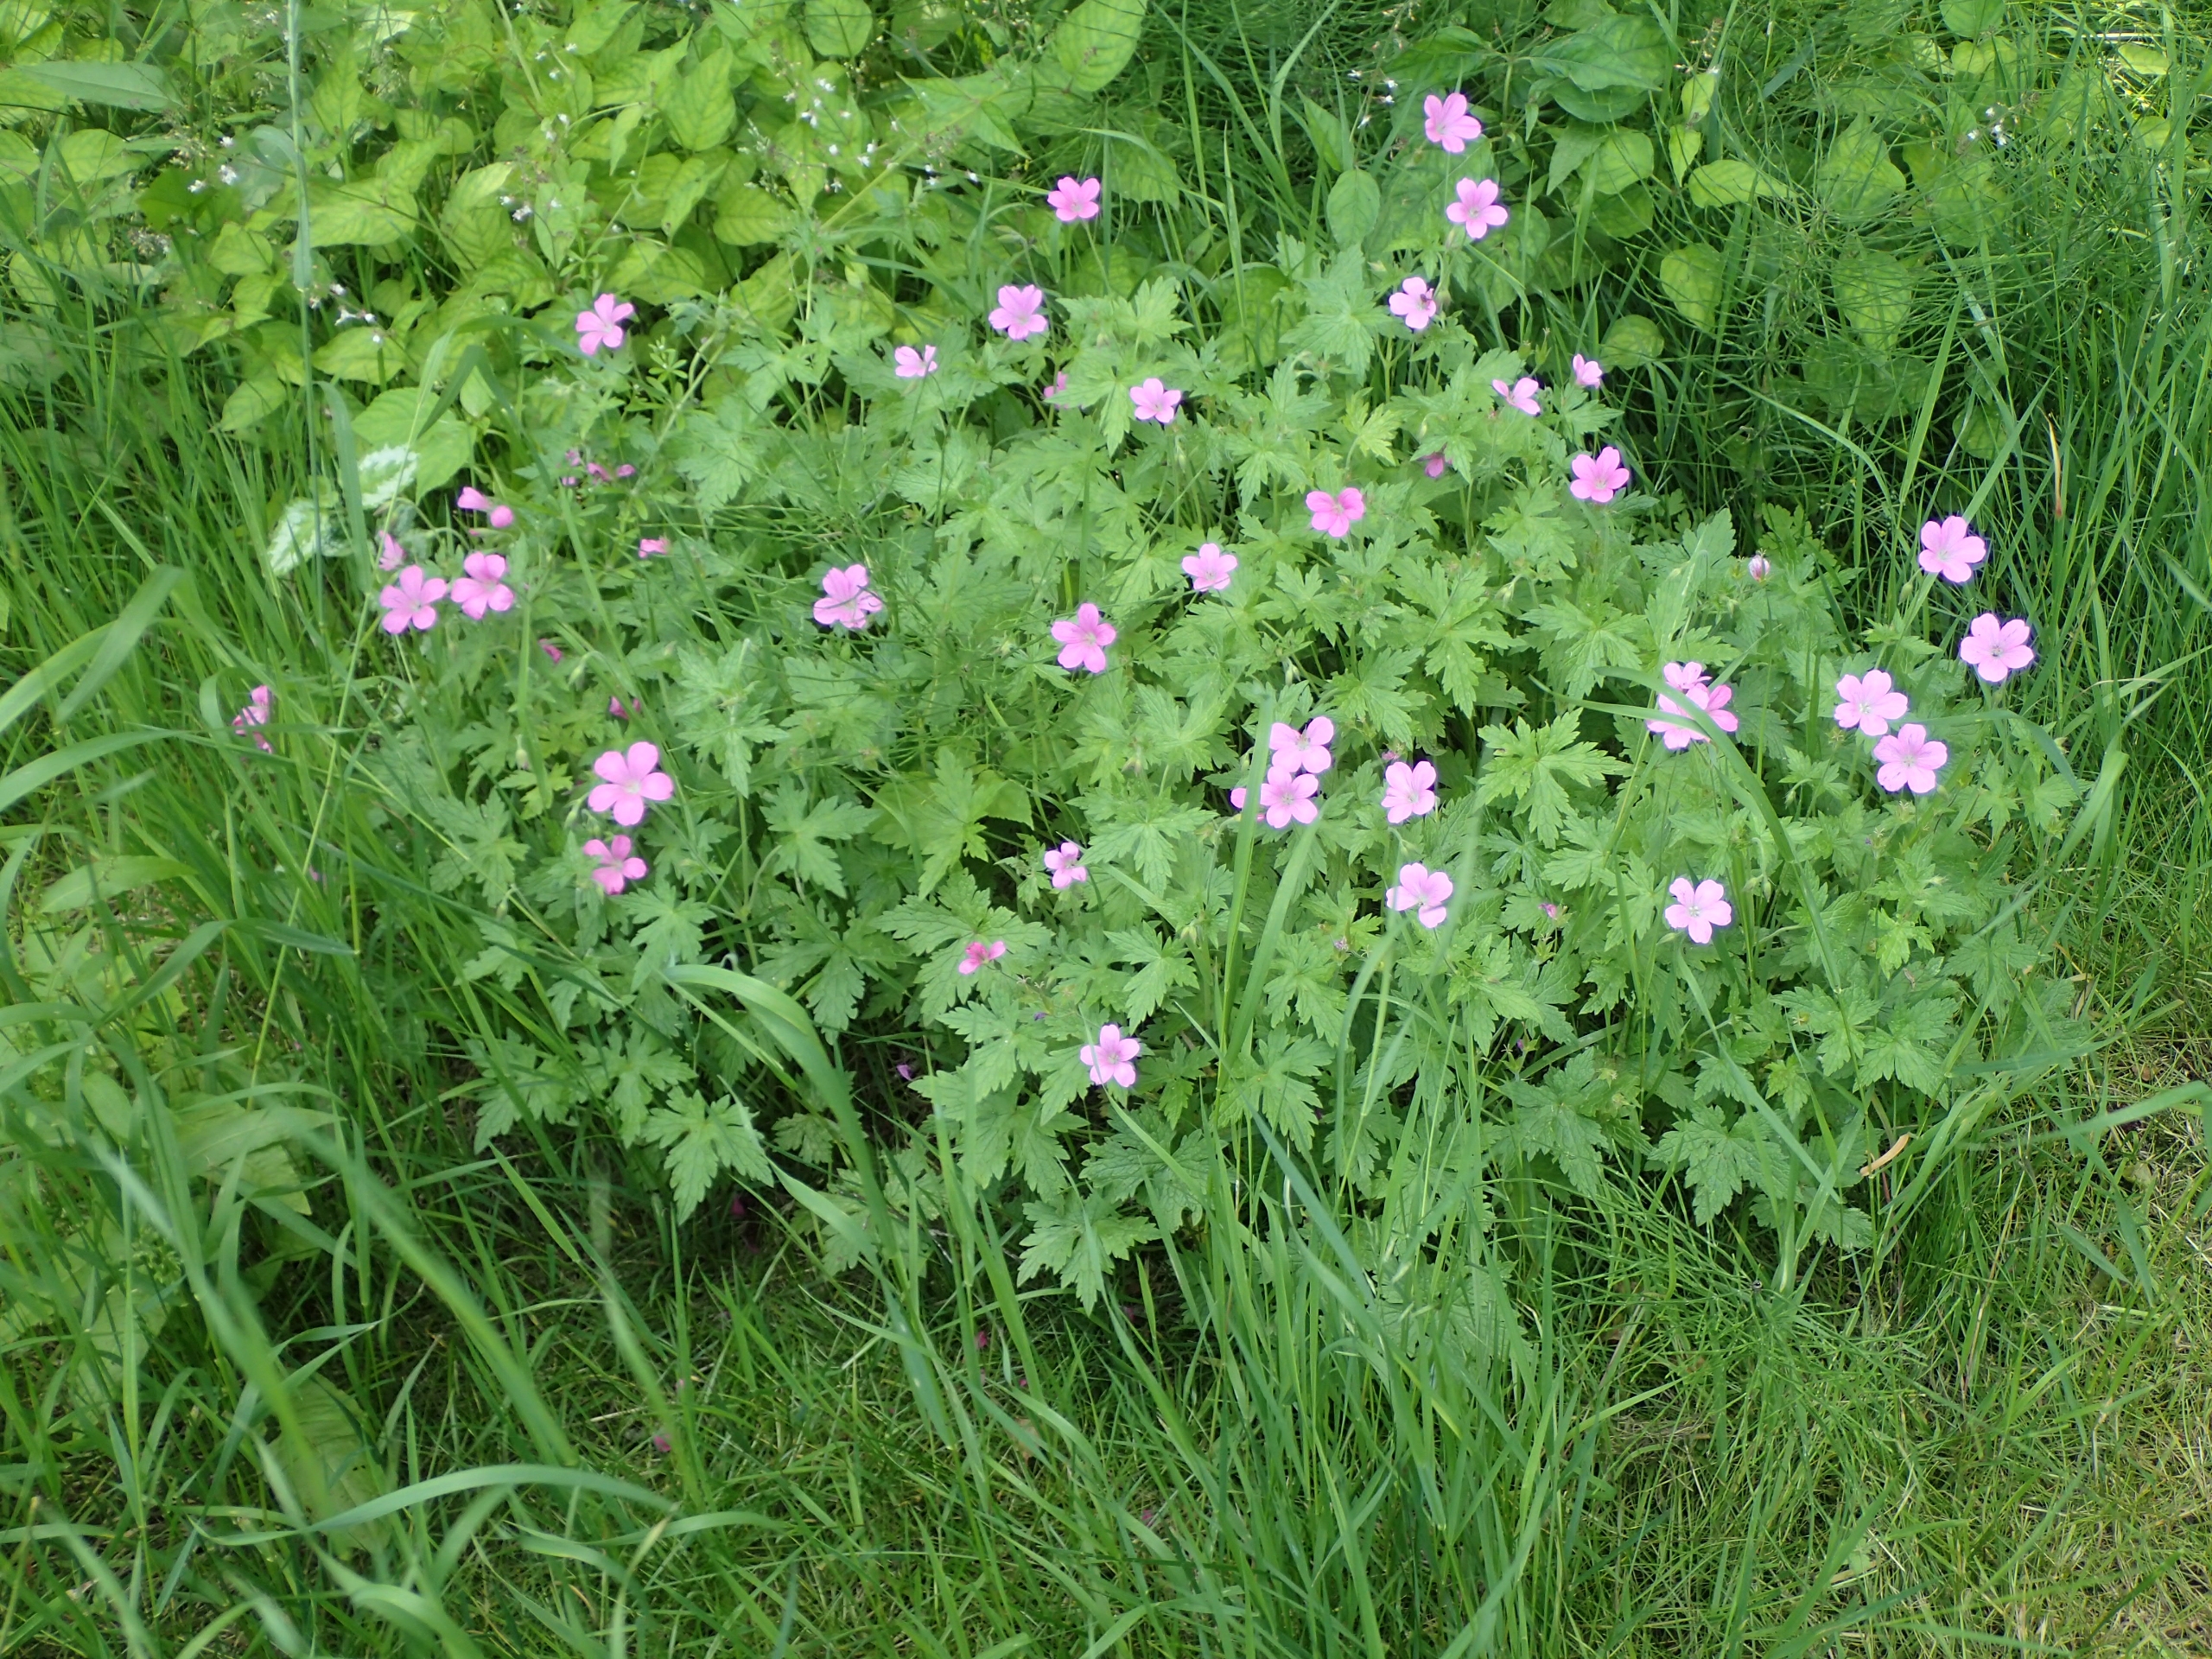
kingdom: Plantae
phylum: Tracheophyta
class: Magnoliopsida
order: Geraniales
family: Geraniaceae
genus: Geranium
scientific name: Geranium endressii
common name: Spansk storkenæb
